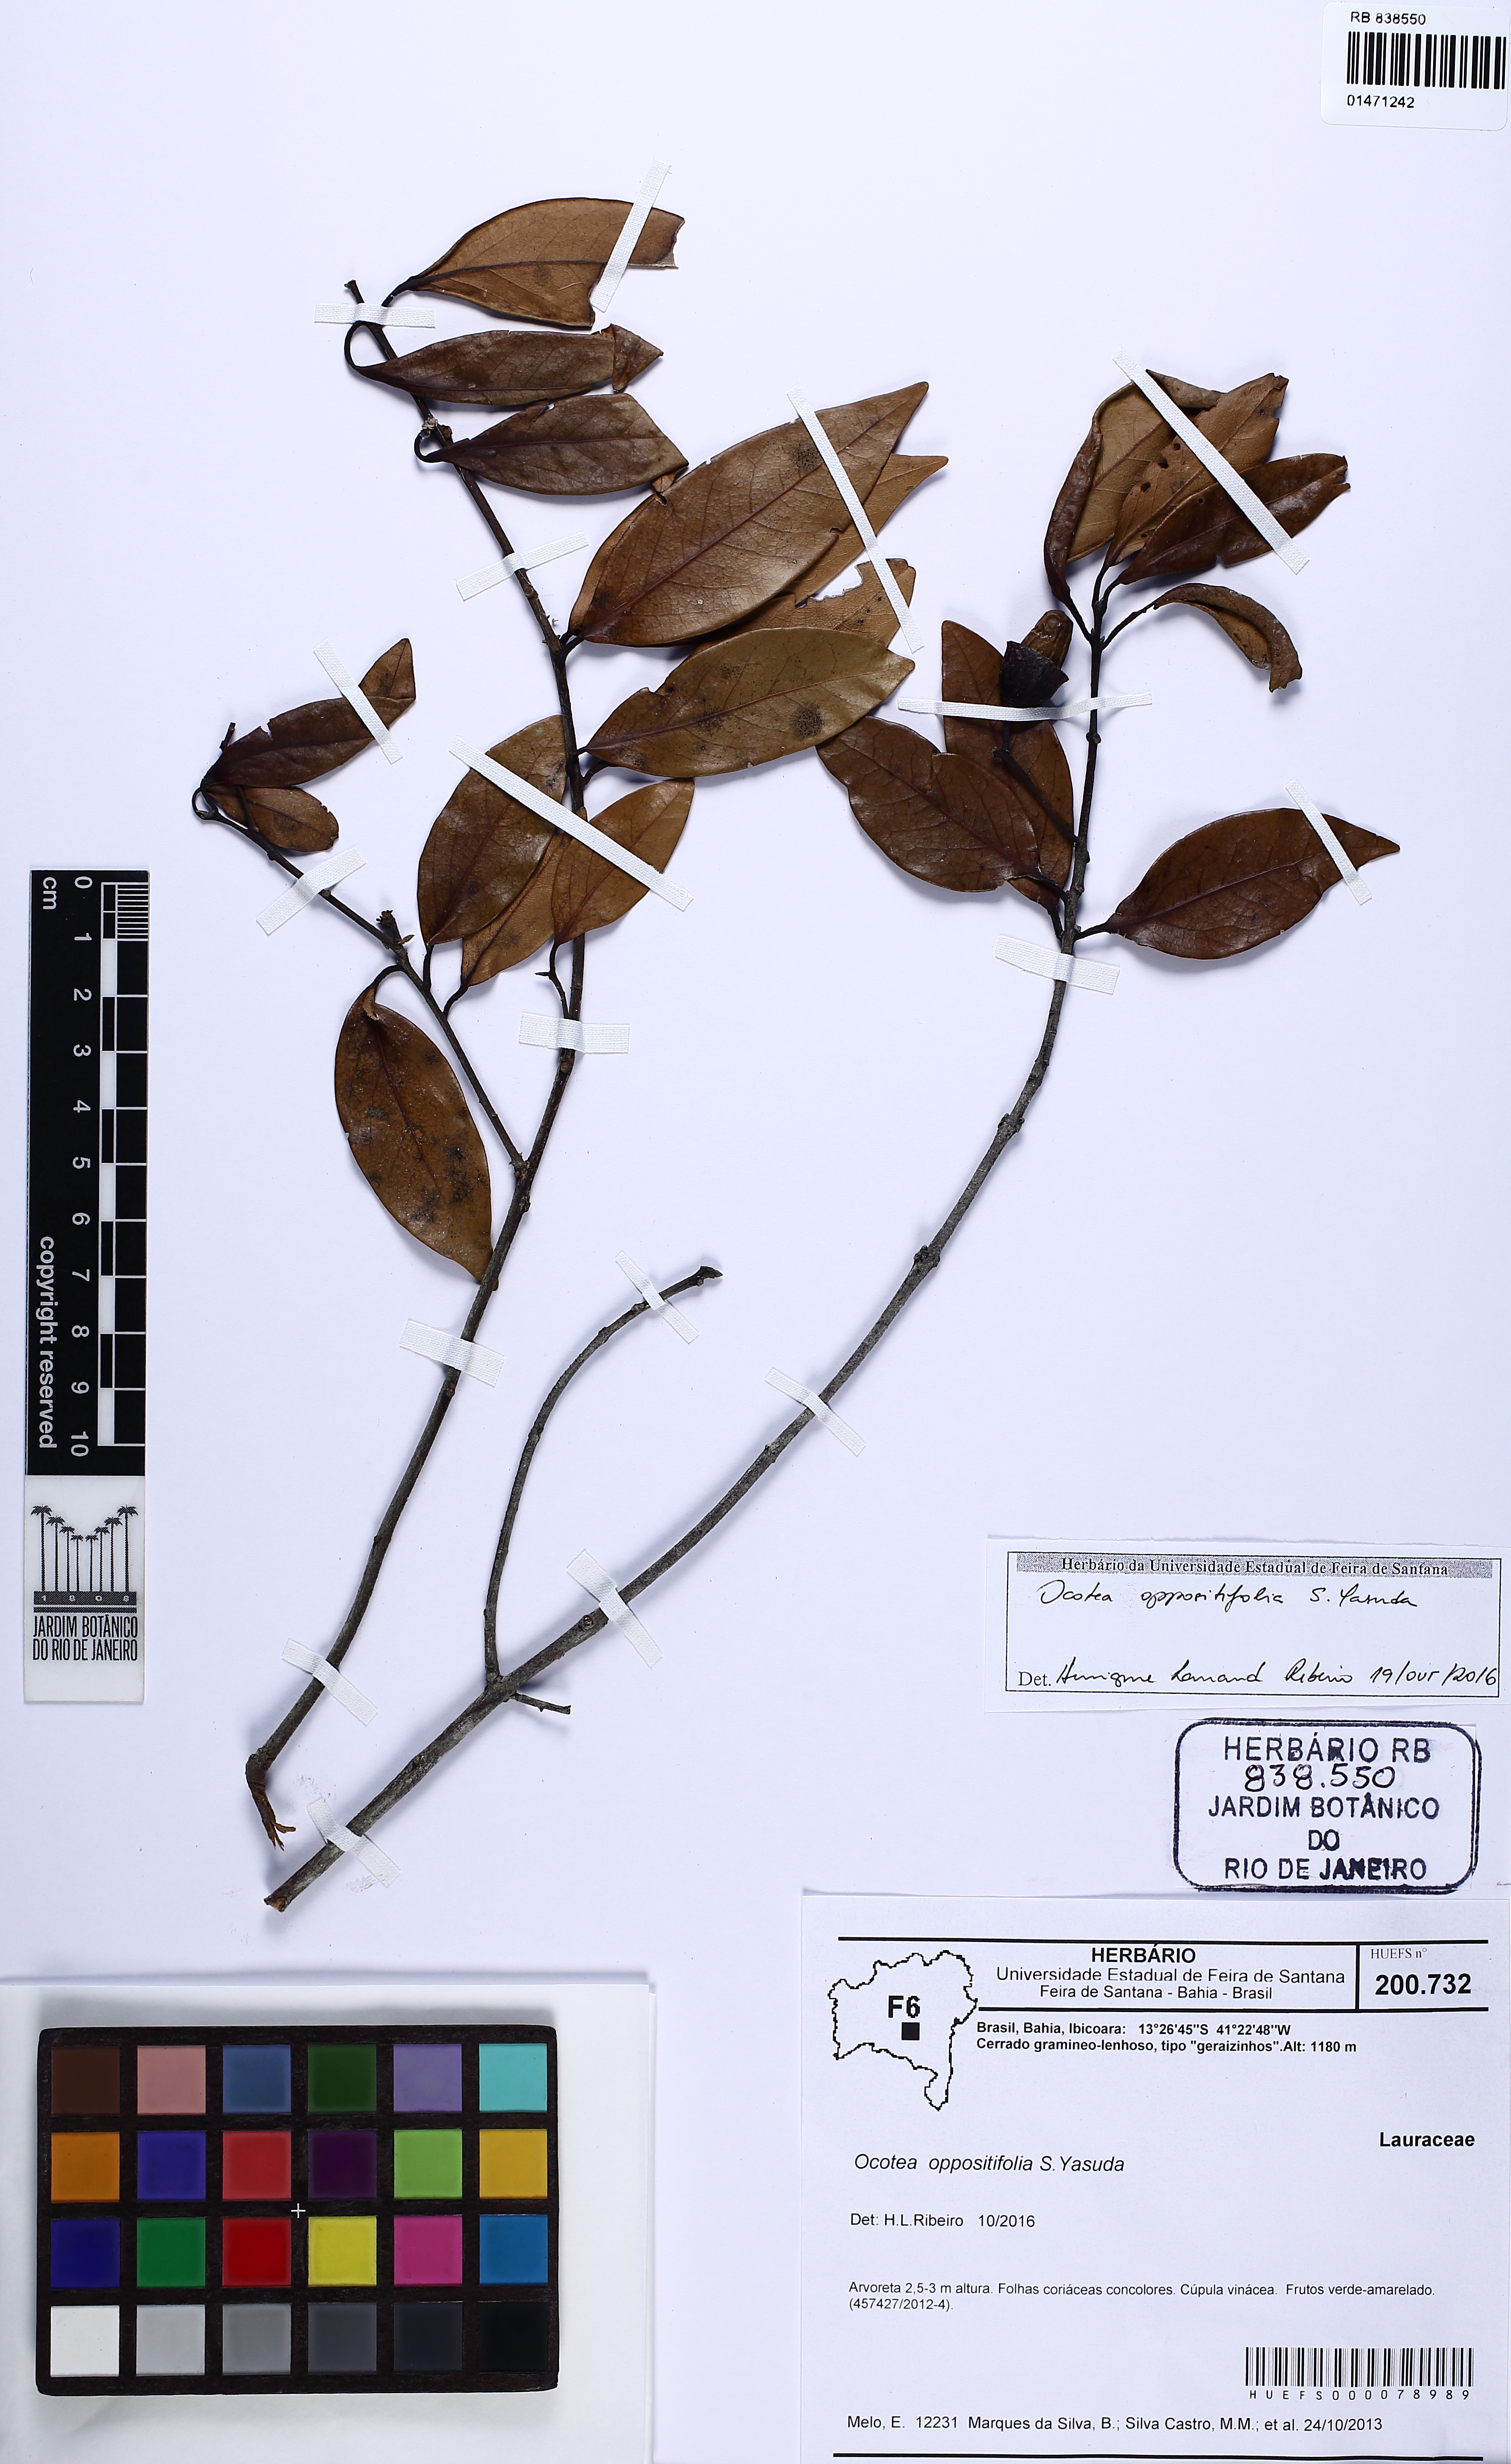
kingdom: Plantae
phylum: Tracheophyta
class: Magnoliopsida
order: Laurales
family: Lauraceae
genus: Ocotea
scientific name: Ocotea oppositifolia
